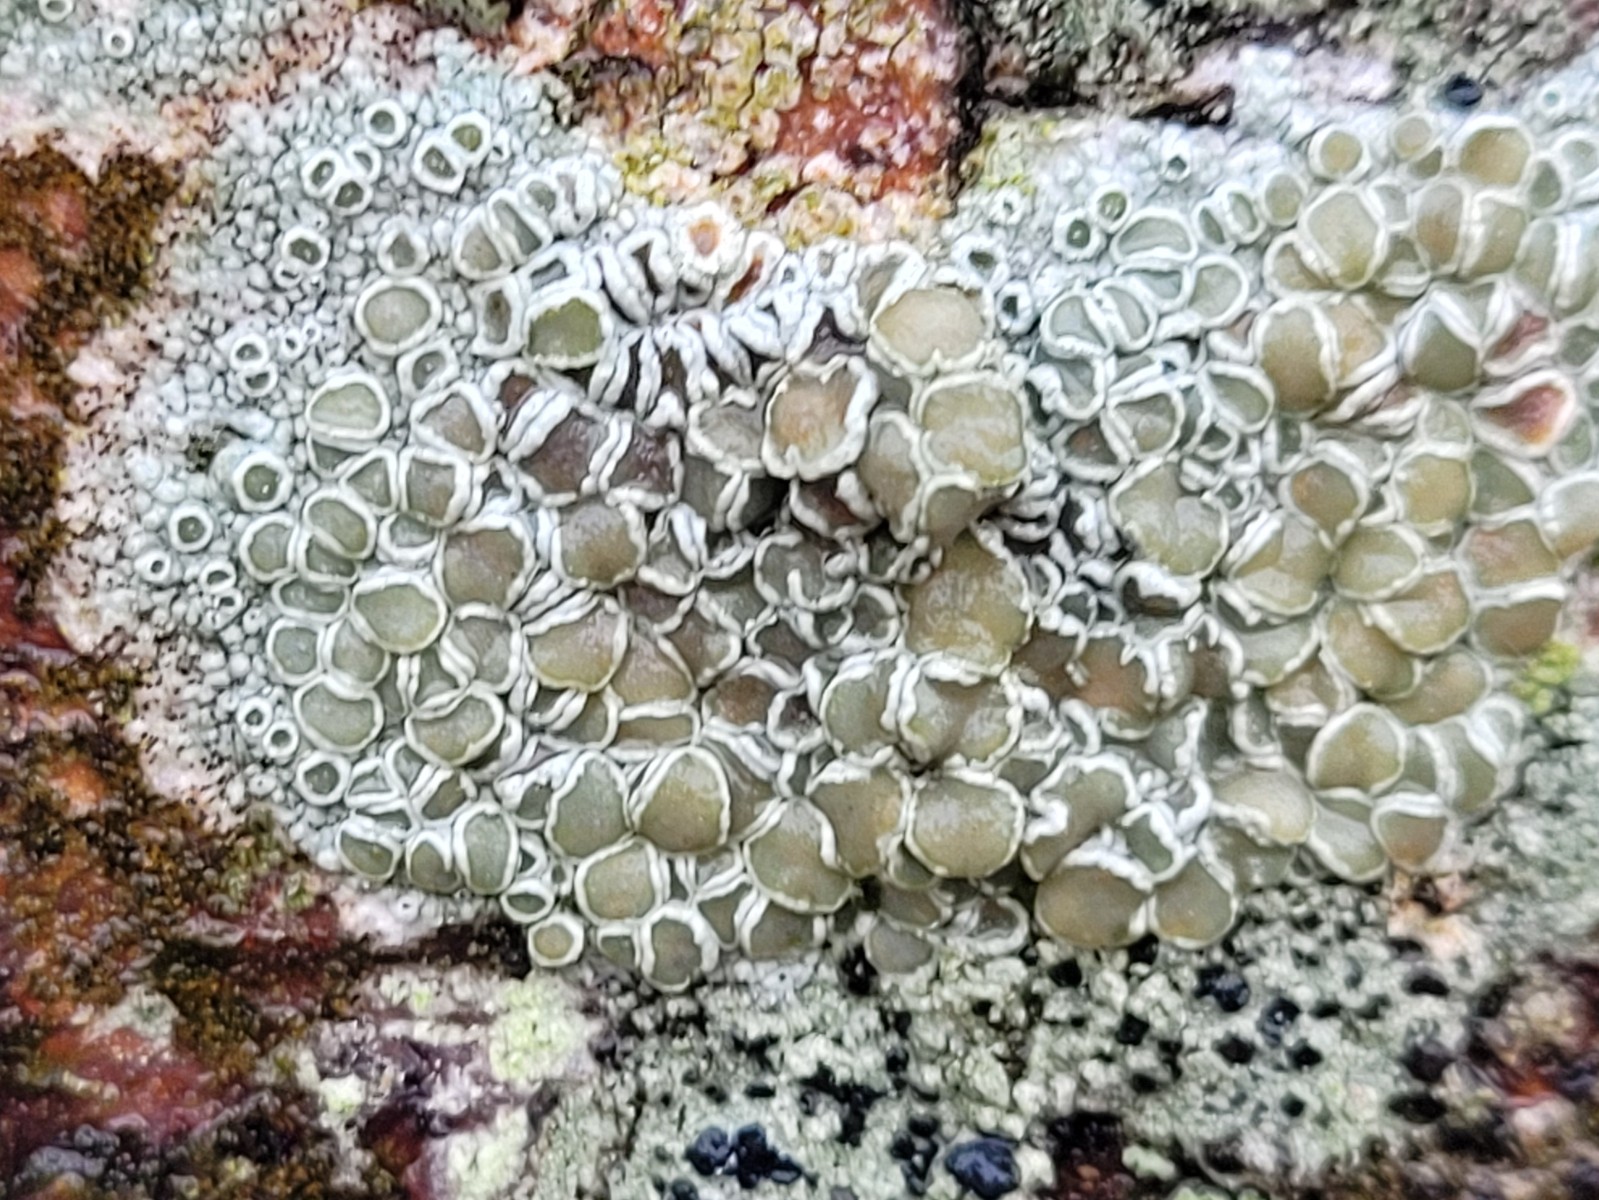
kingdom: Fungi
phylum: Ascomycota
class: Lecanoromycetes
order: Lecanorales
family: Lecanoraceae
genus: Lecanora
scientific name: Lecanora chlarotera
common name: brun kantskivelav
